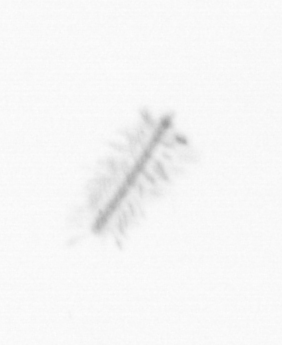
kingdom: Chromista
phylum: Ochrophyta
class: Bacillariophyceae
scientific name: Bacillariophyceae
